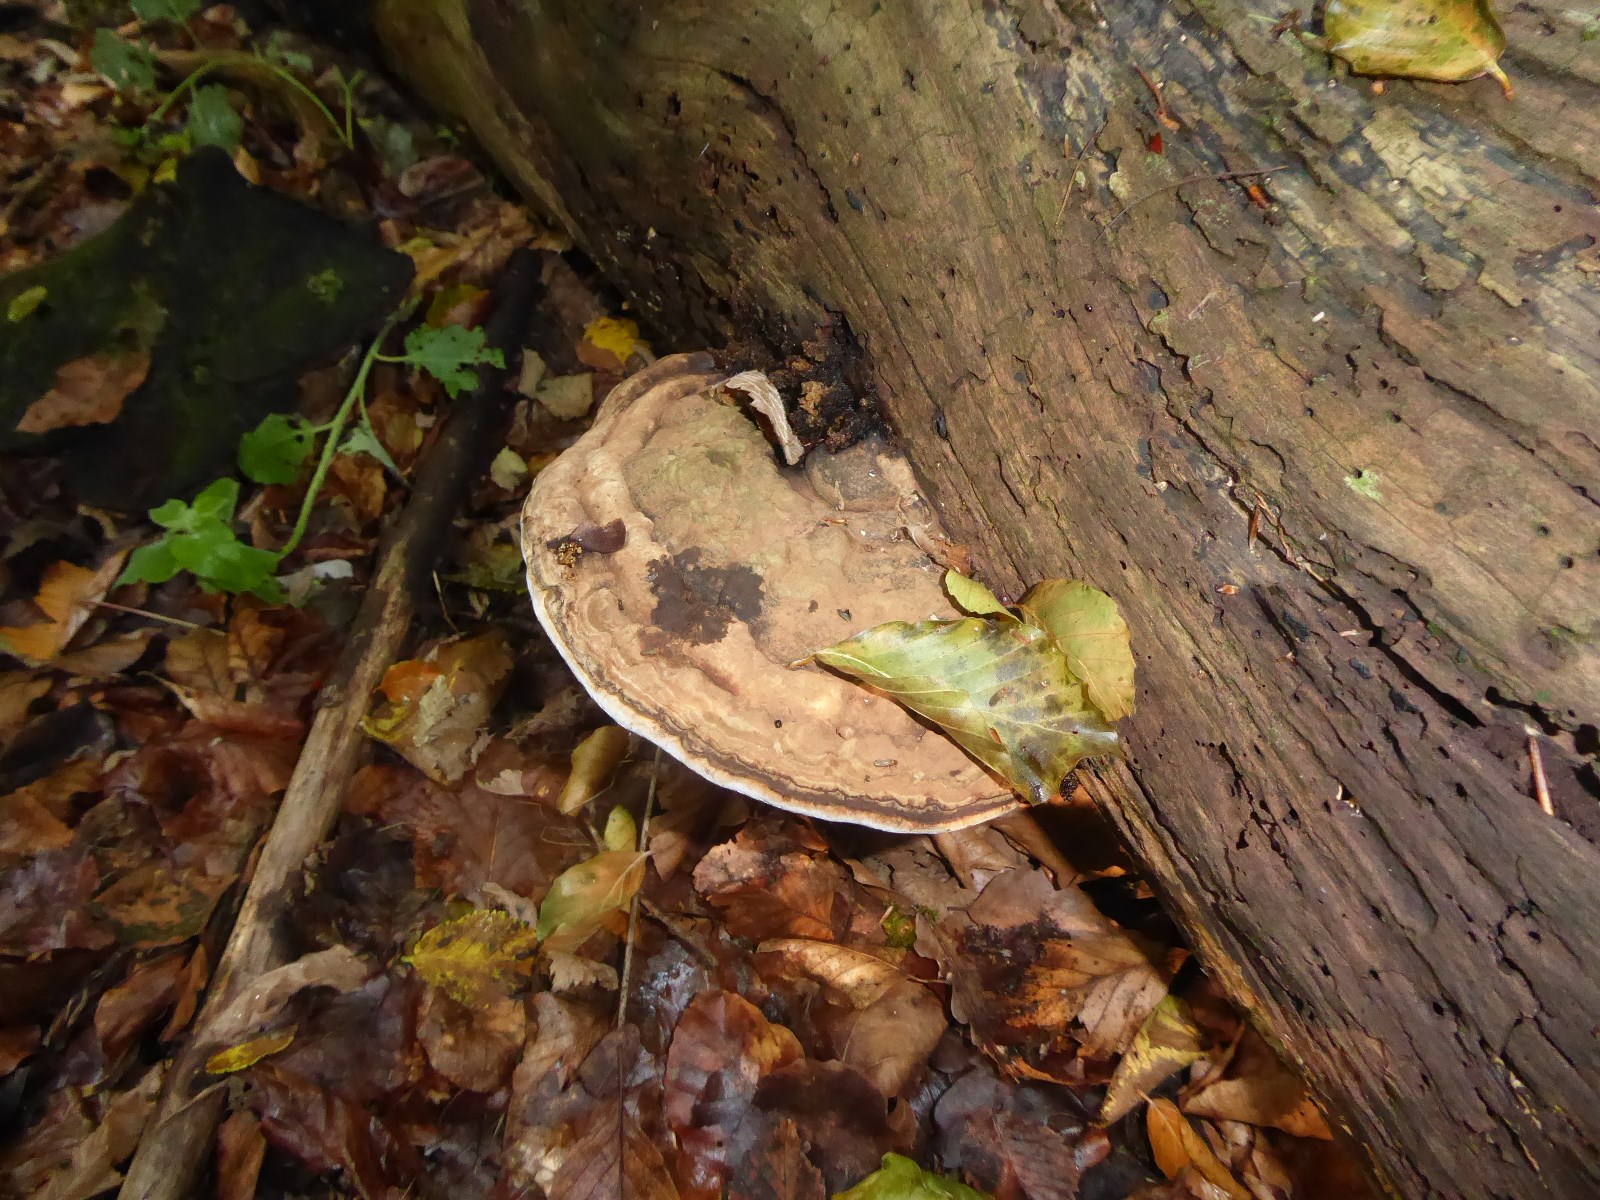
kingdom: Fungi
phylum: Basidiomycota
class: Agaricomycetes
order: Polyporales
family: Polyporaceae
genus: Ganoderma
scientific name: Ganoderma applanatum
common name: flad lakporesvamp
